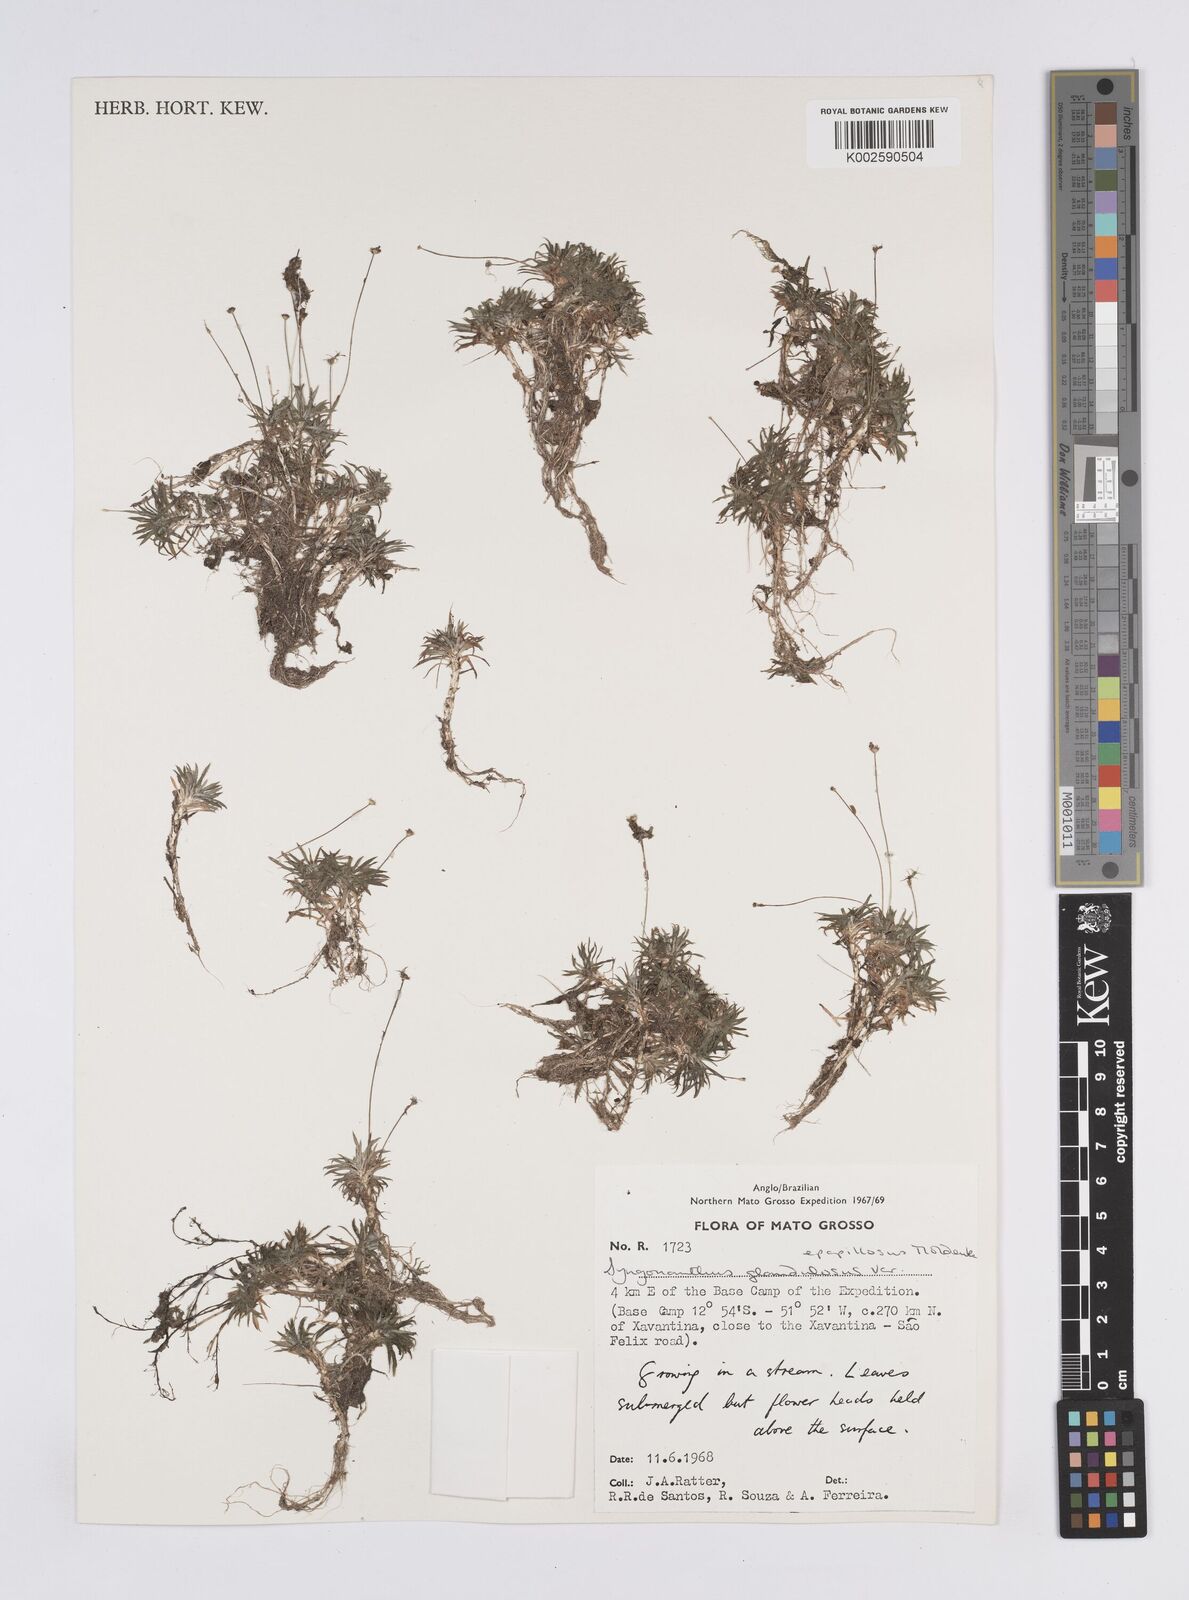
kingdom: Plantae
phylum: Tracheophyta
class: Liliopsida
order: Poales
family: Eriocaulaceae
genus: Syngonanthus
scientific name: Syngonanthus caulescens
